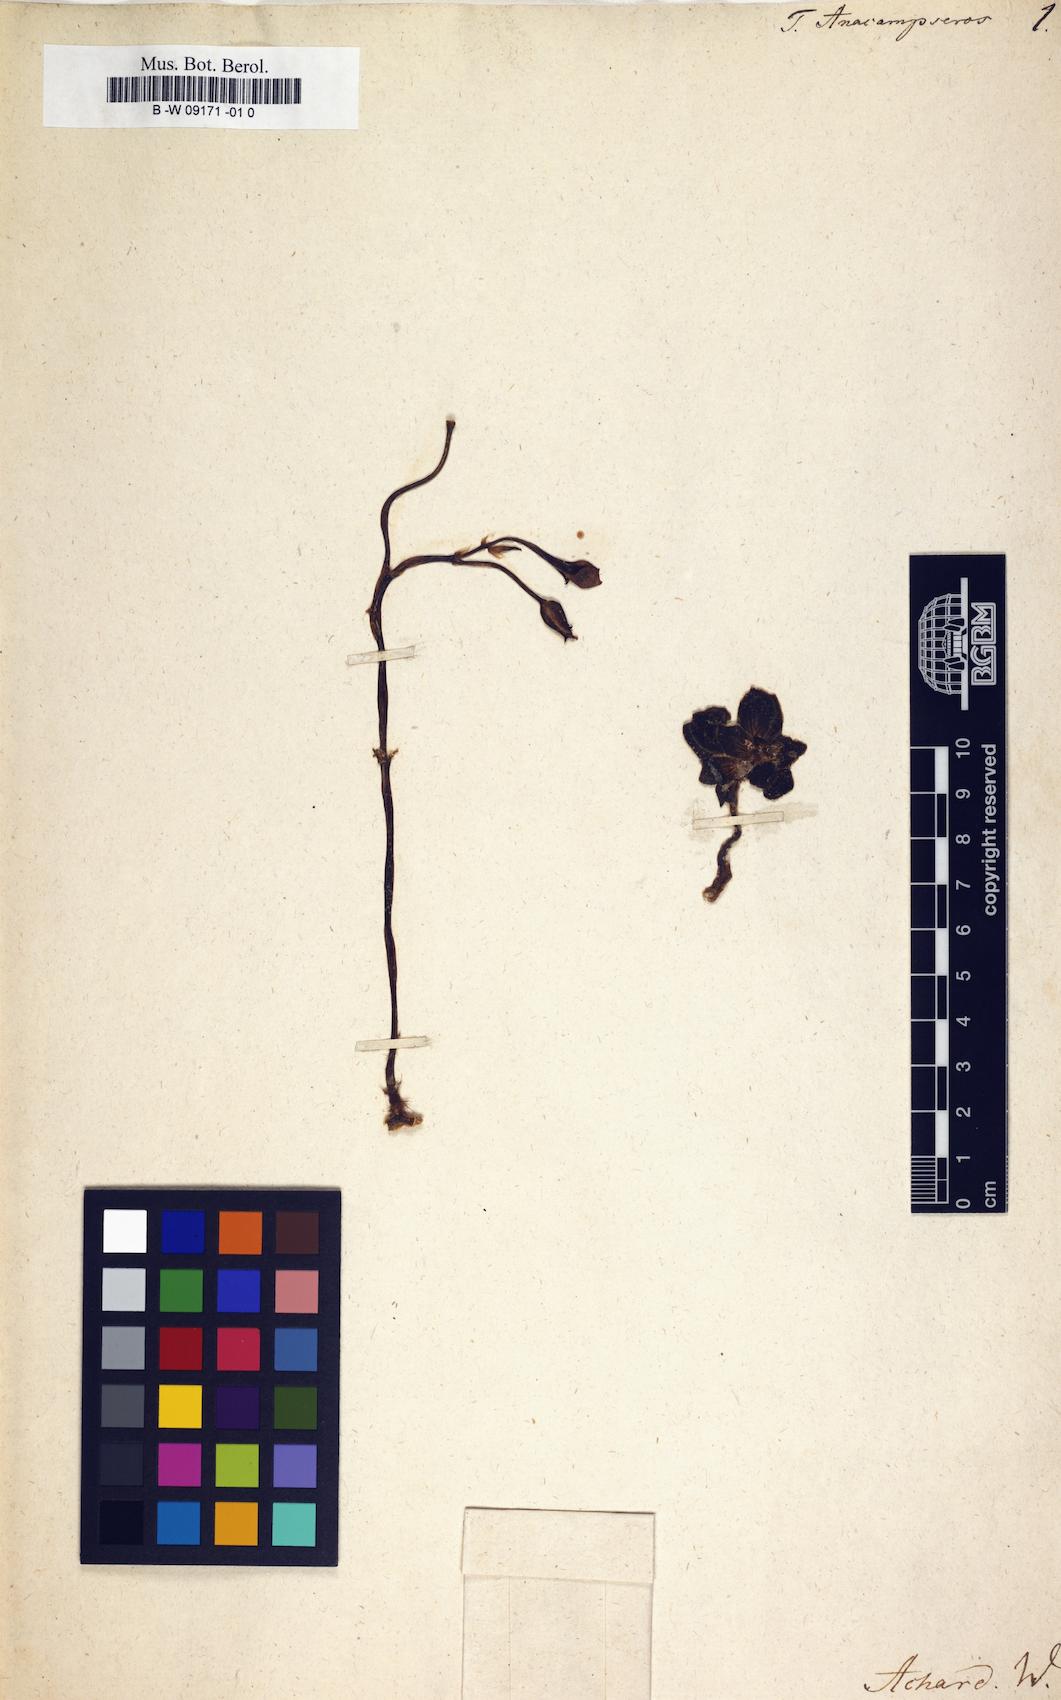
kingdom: Plantae
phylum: Tracheophyta
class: Magnoliopsida
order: Caryophyllales
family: Anacampserotaceae
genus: Anacampseros
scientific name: Anacampseros telephiastrum
